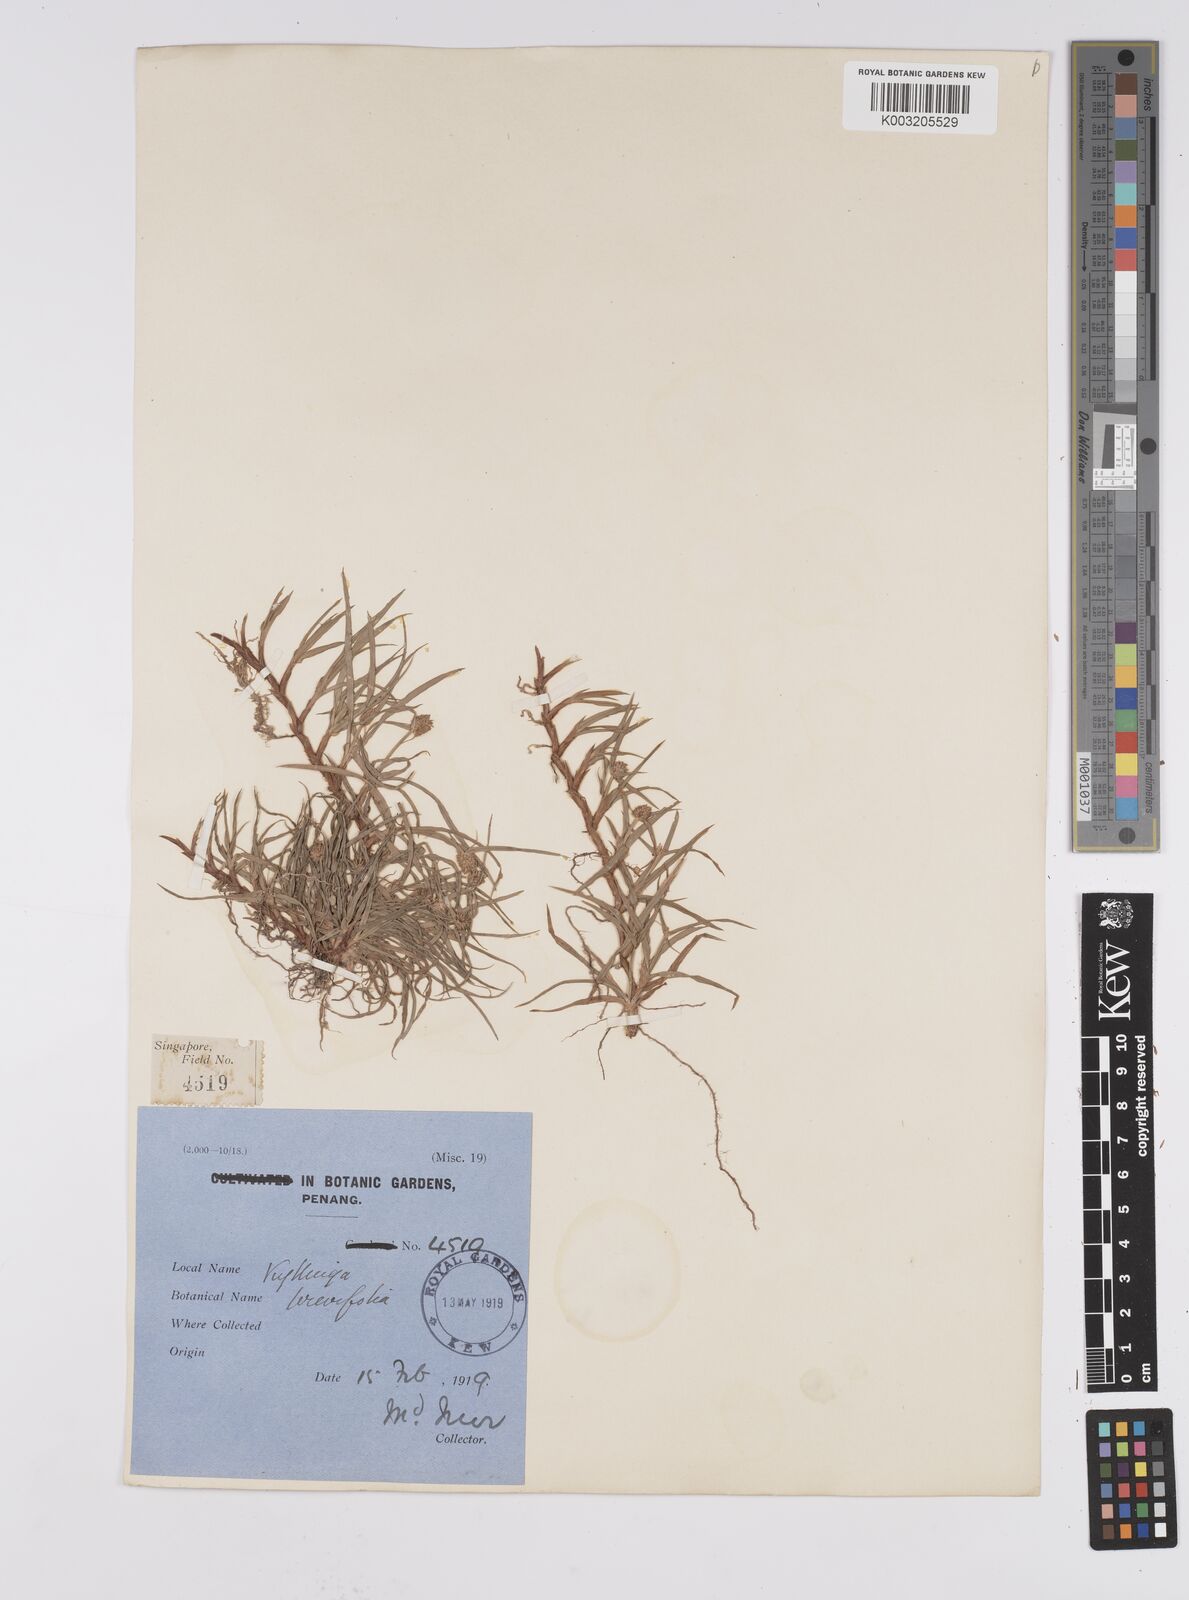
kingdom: Plantae
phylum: Tracheophyta
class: Liliopsida
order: Poales
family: Cyperaceae
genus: Cyperus
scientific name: Cyperus
